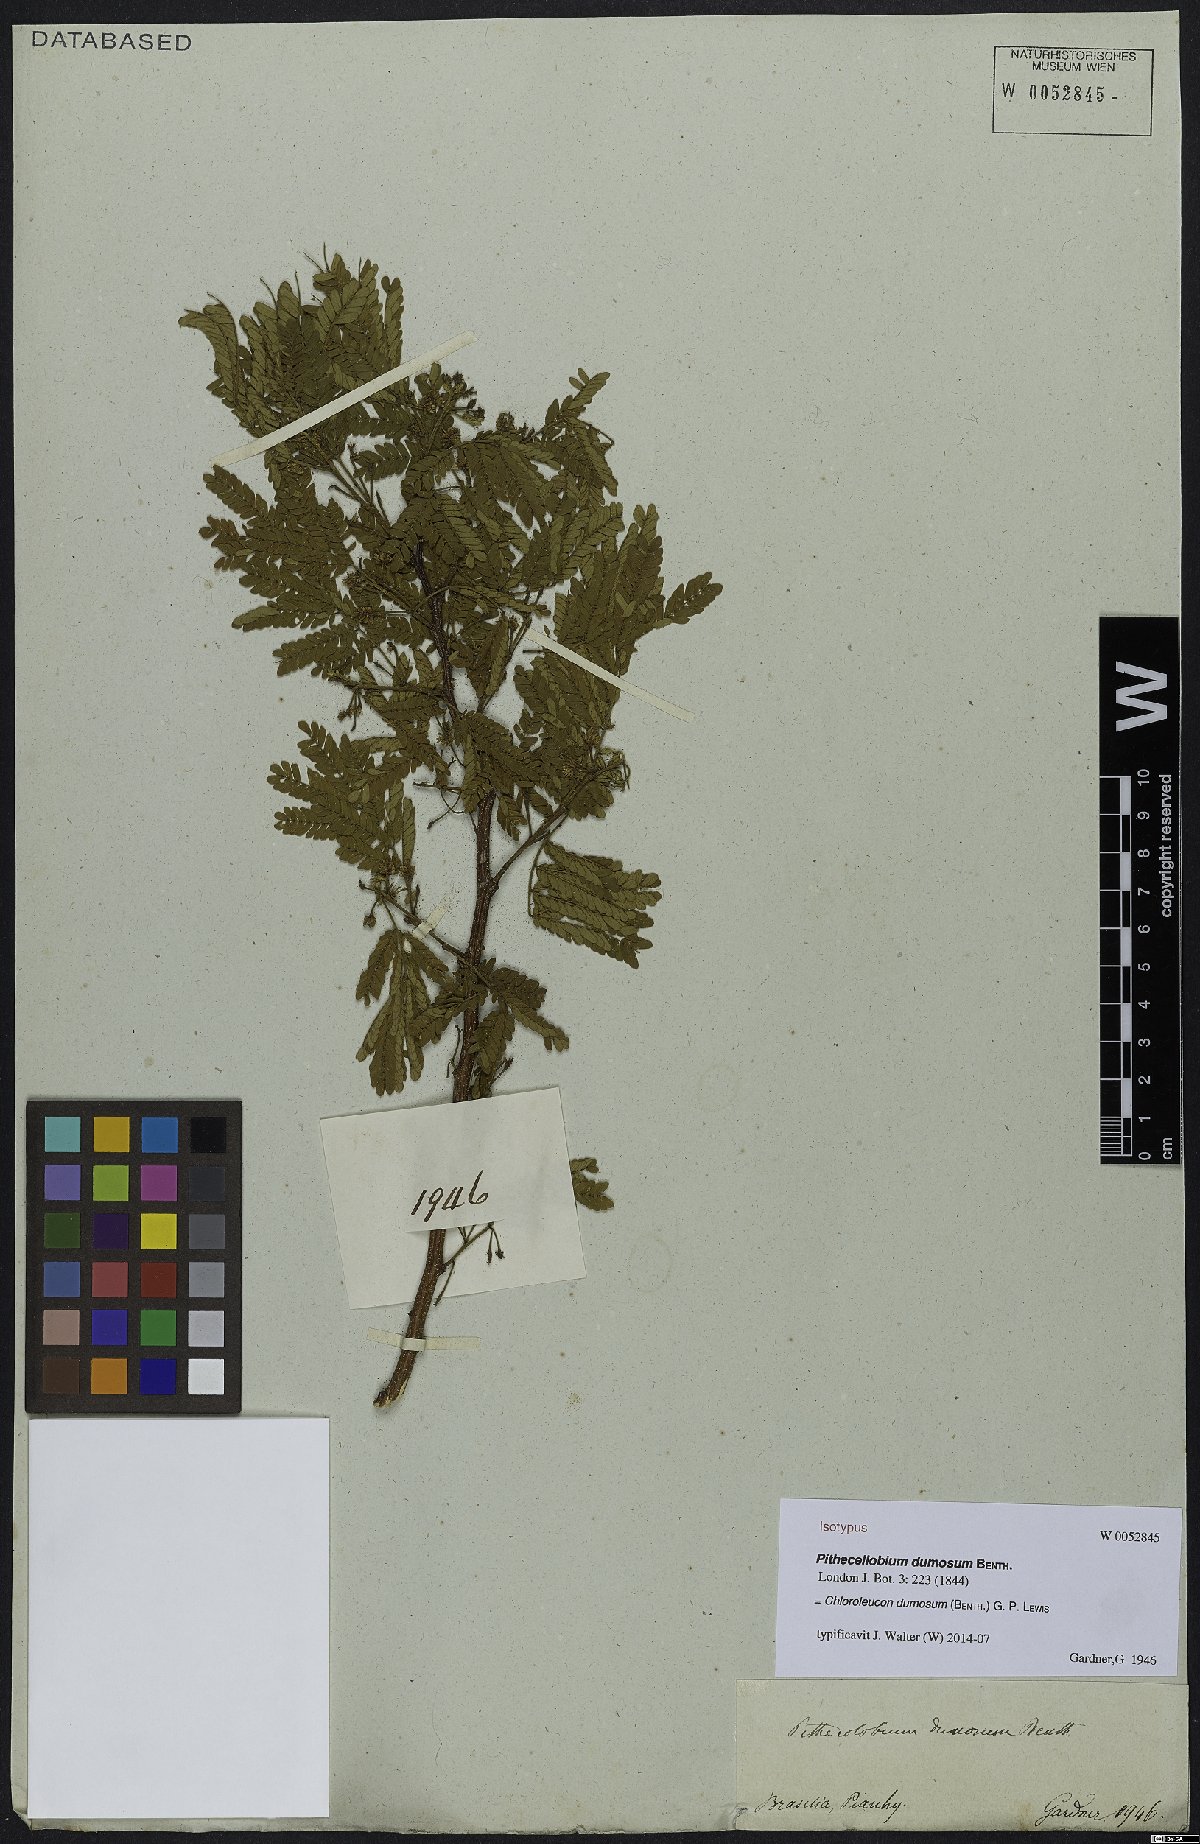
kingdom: Plantae
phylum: Tracheophyta
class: Magnoliopsida
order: Fabales
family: Fabaceae
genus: Chloroleucon
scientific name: Chloroleucon dumosum
